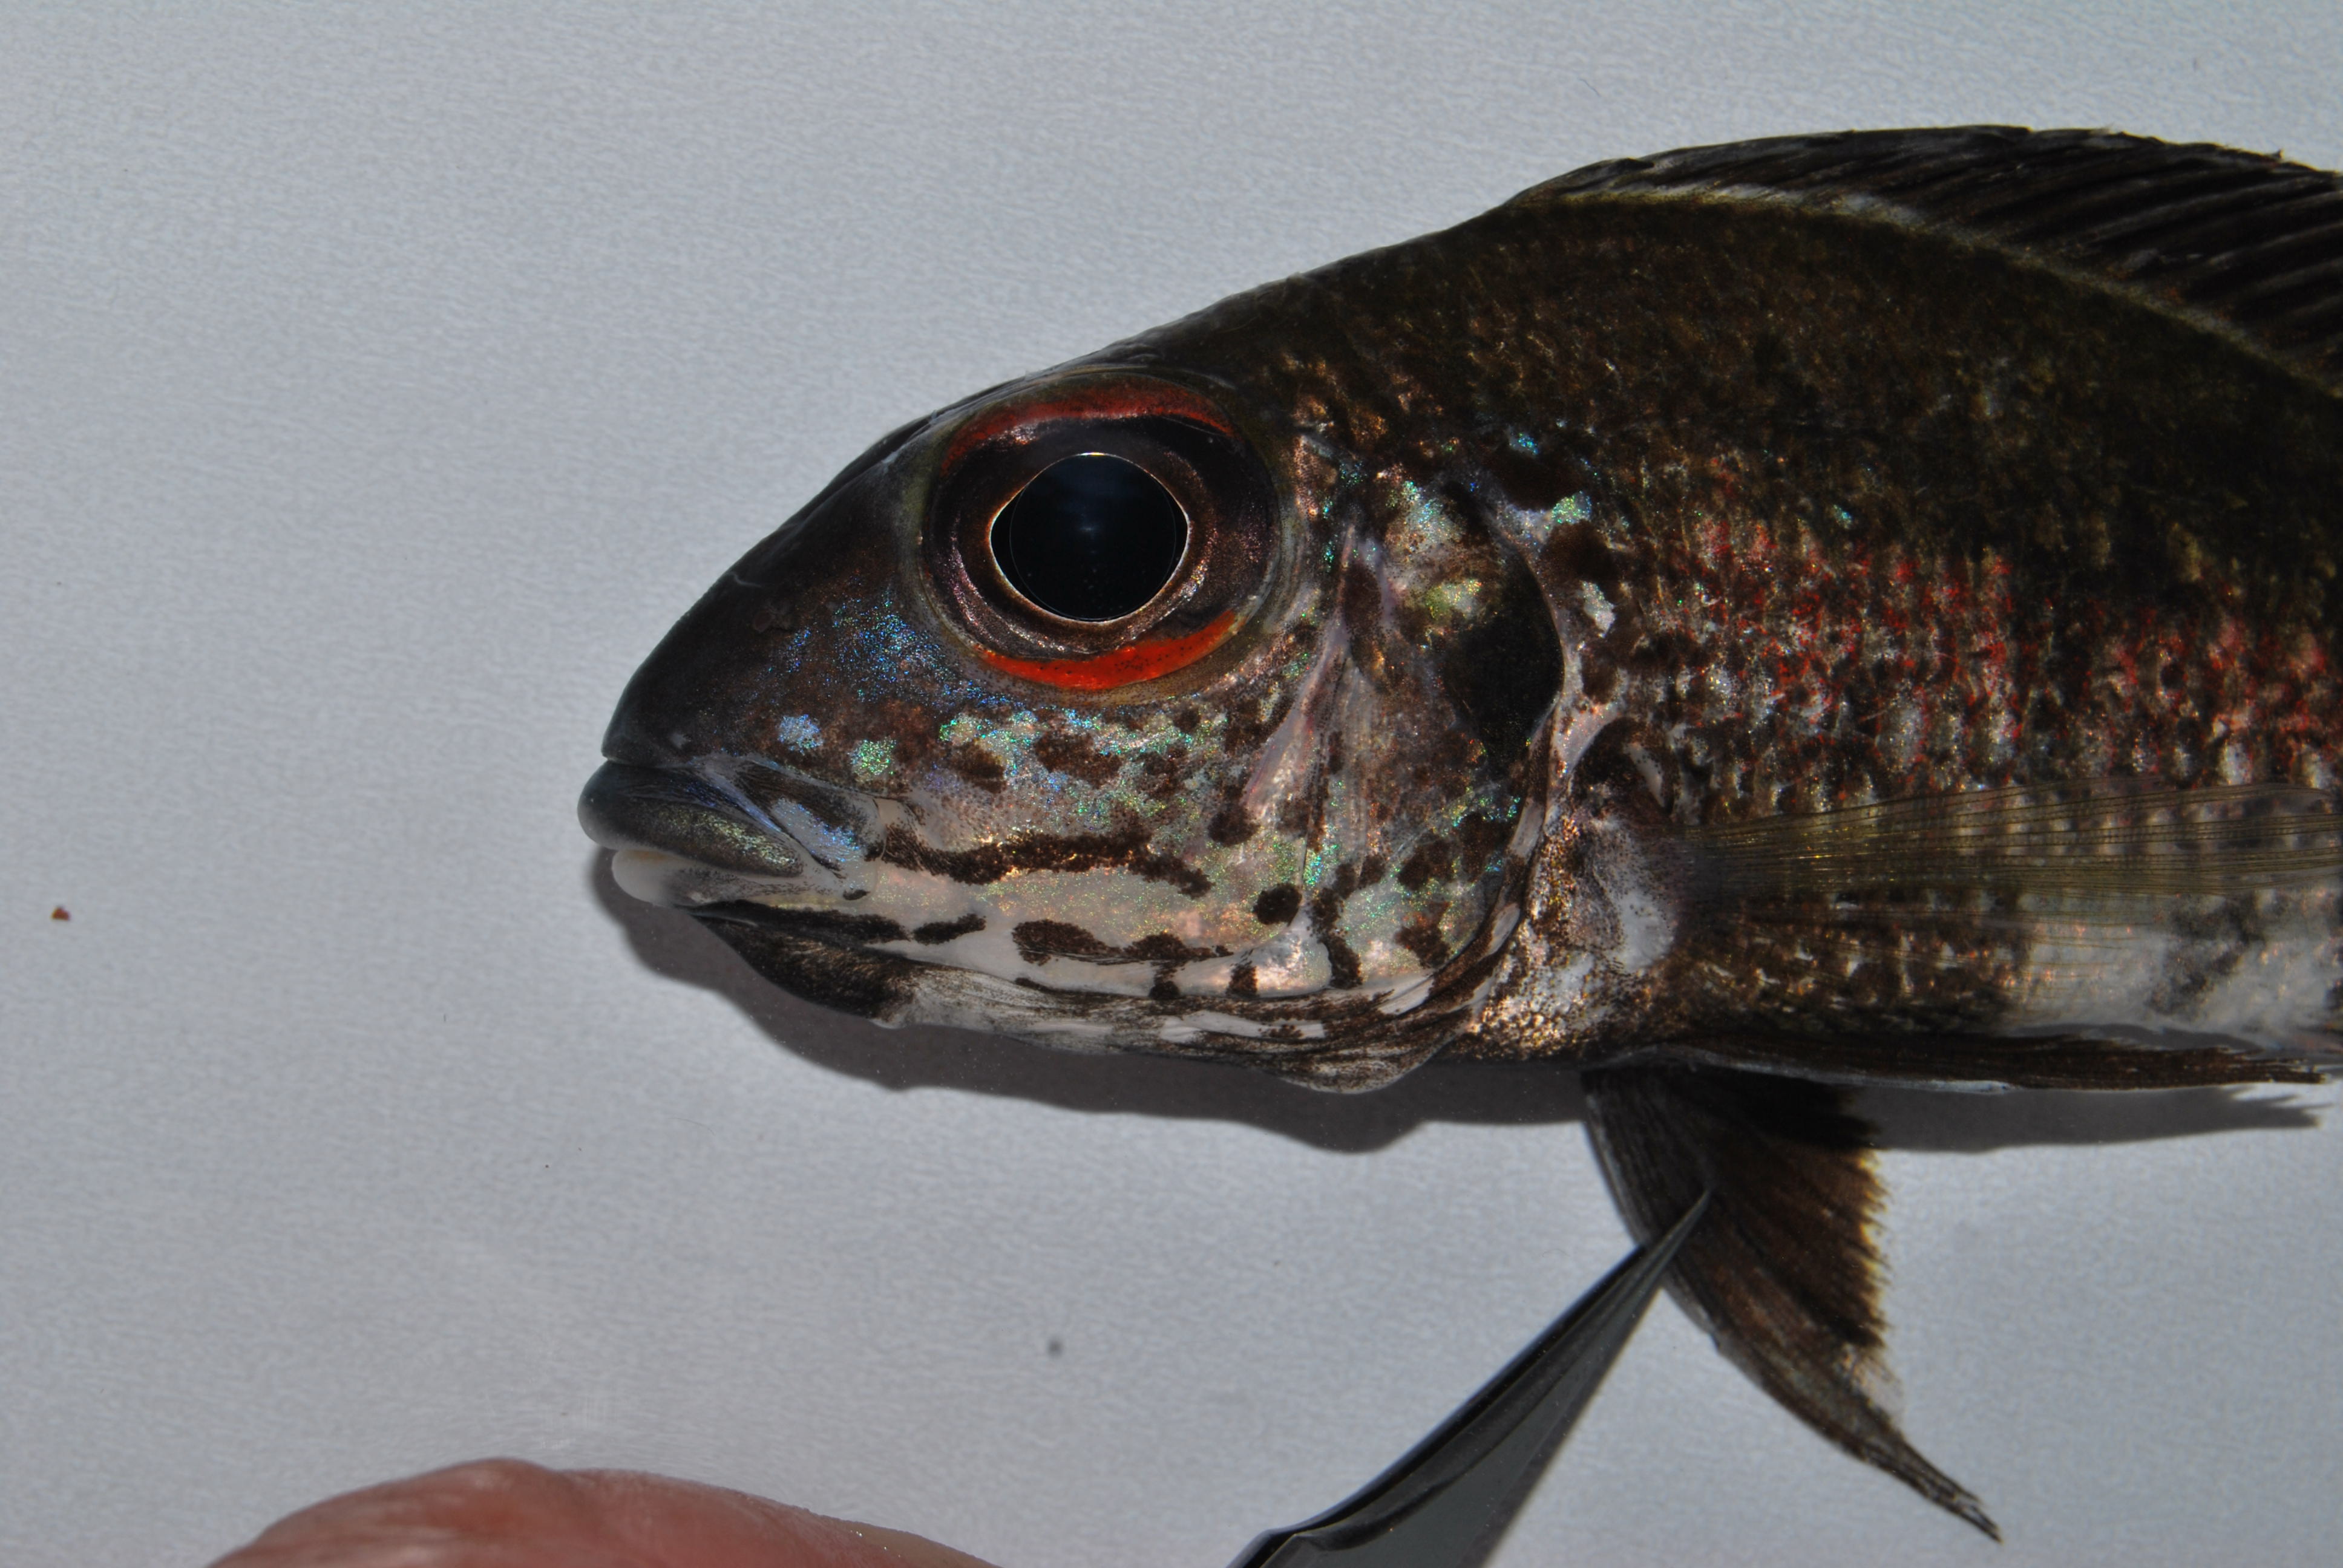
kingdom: Animalia
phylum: Chordata
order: Perciformes
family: Cichlidae
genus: Callochromis
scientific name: Callochromis macrops
